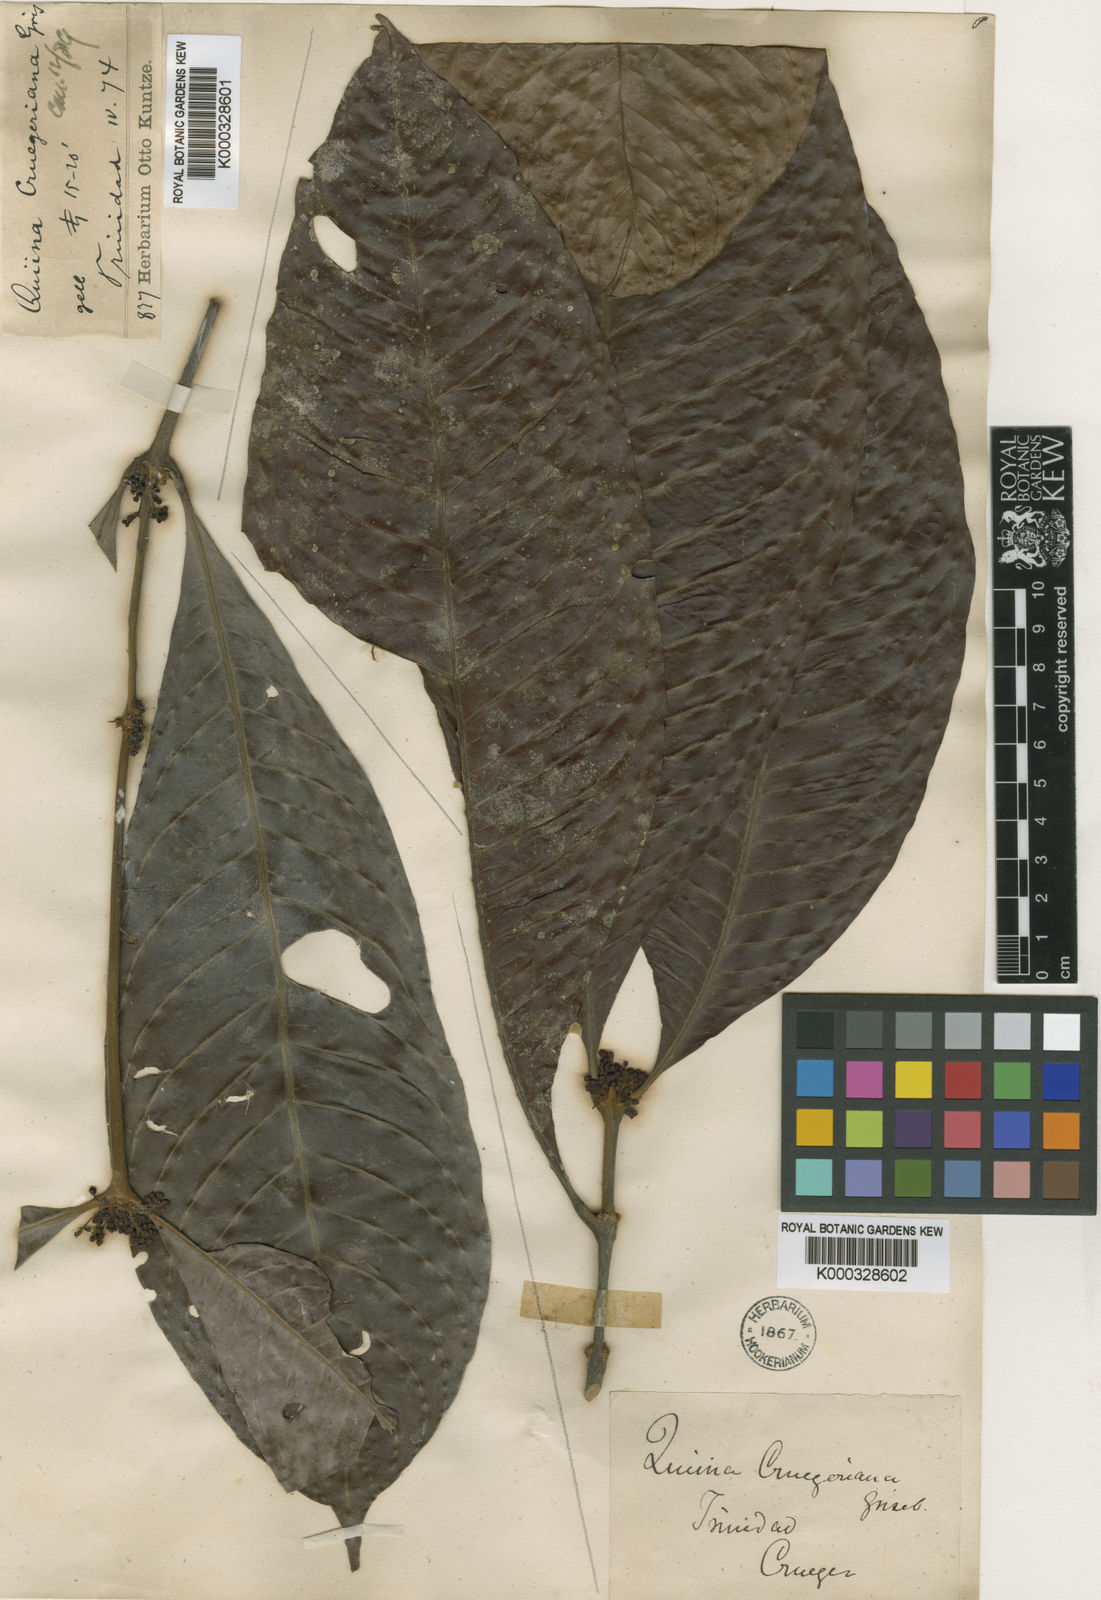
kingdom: Plantae
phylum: Tracheophyta
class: Magnoliopsida
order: Malpighiales
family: Quiinaceae
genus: Quiina
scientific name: Quiina cruegeriana
